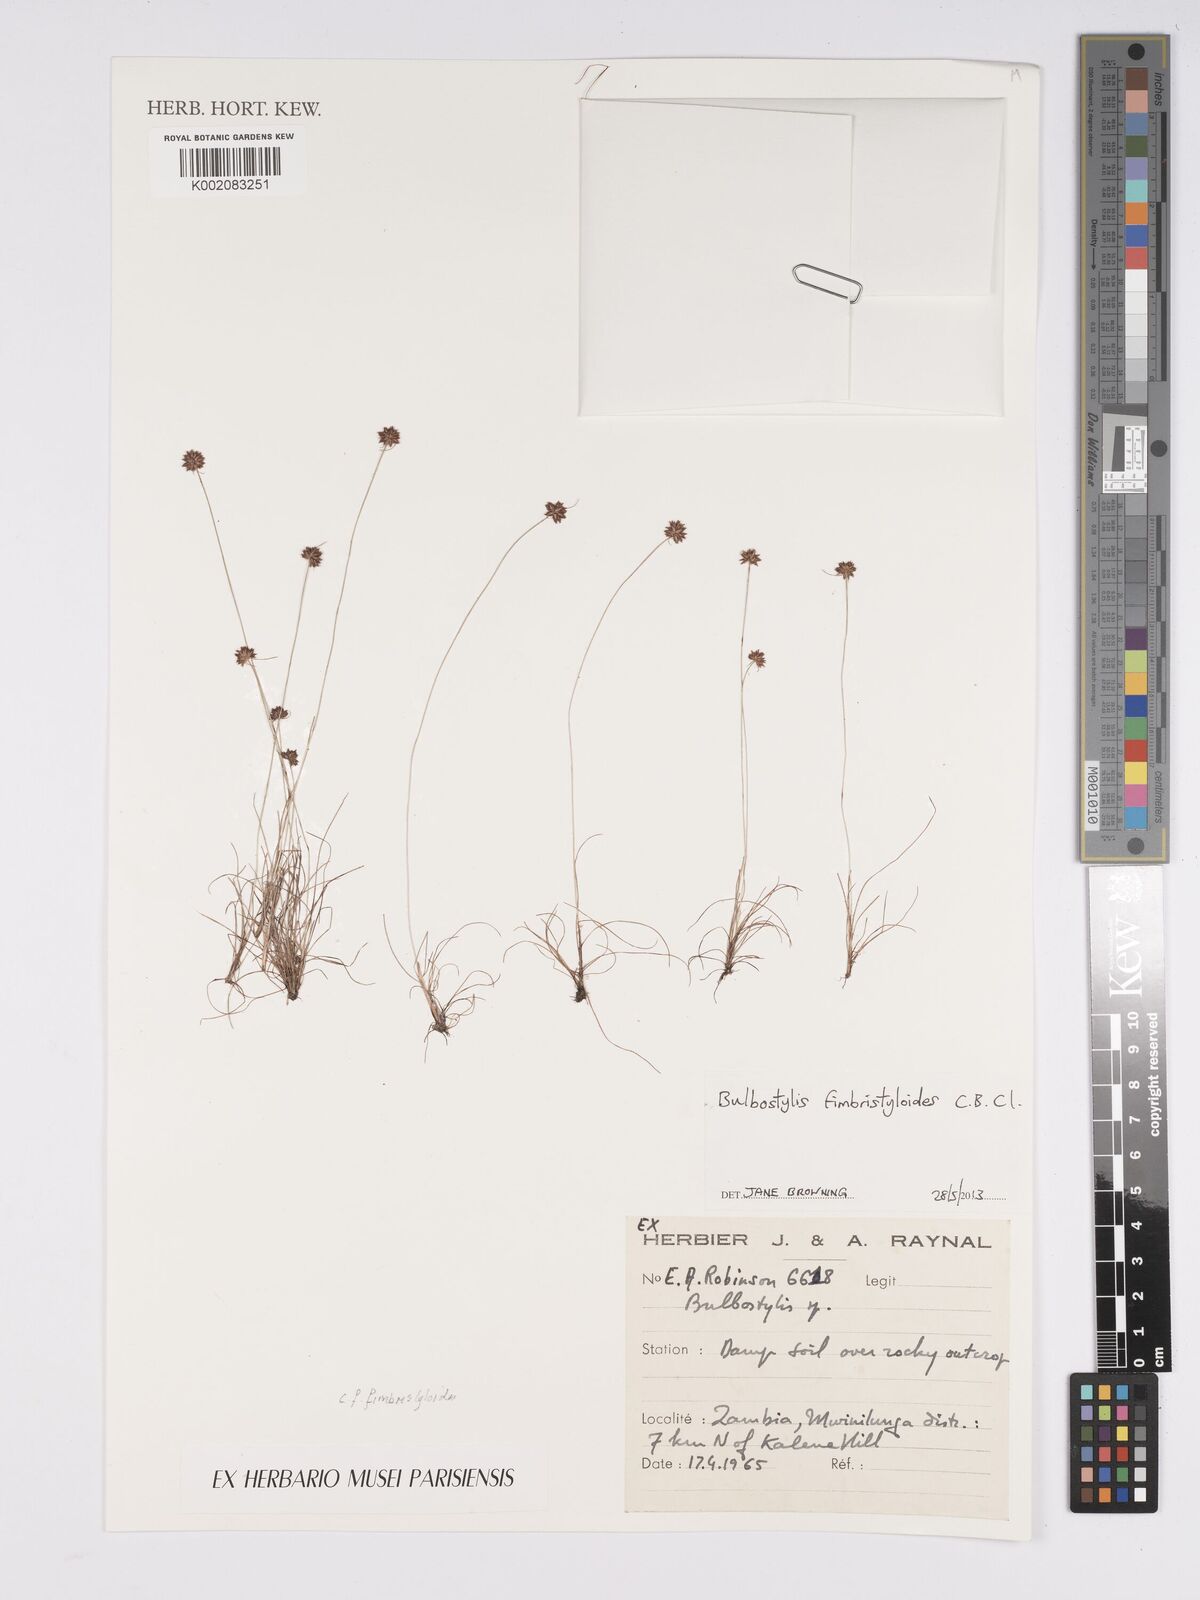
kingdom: Plantae
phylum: Tracheophyta
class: Liliopsida
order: Poales
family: Cyperaceae
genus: Bulbostylis
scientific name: Bulbostylis fimbristyloides
